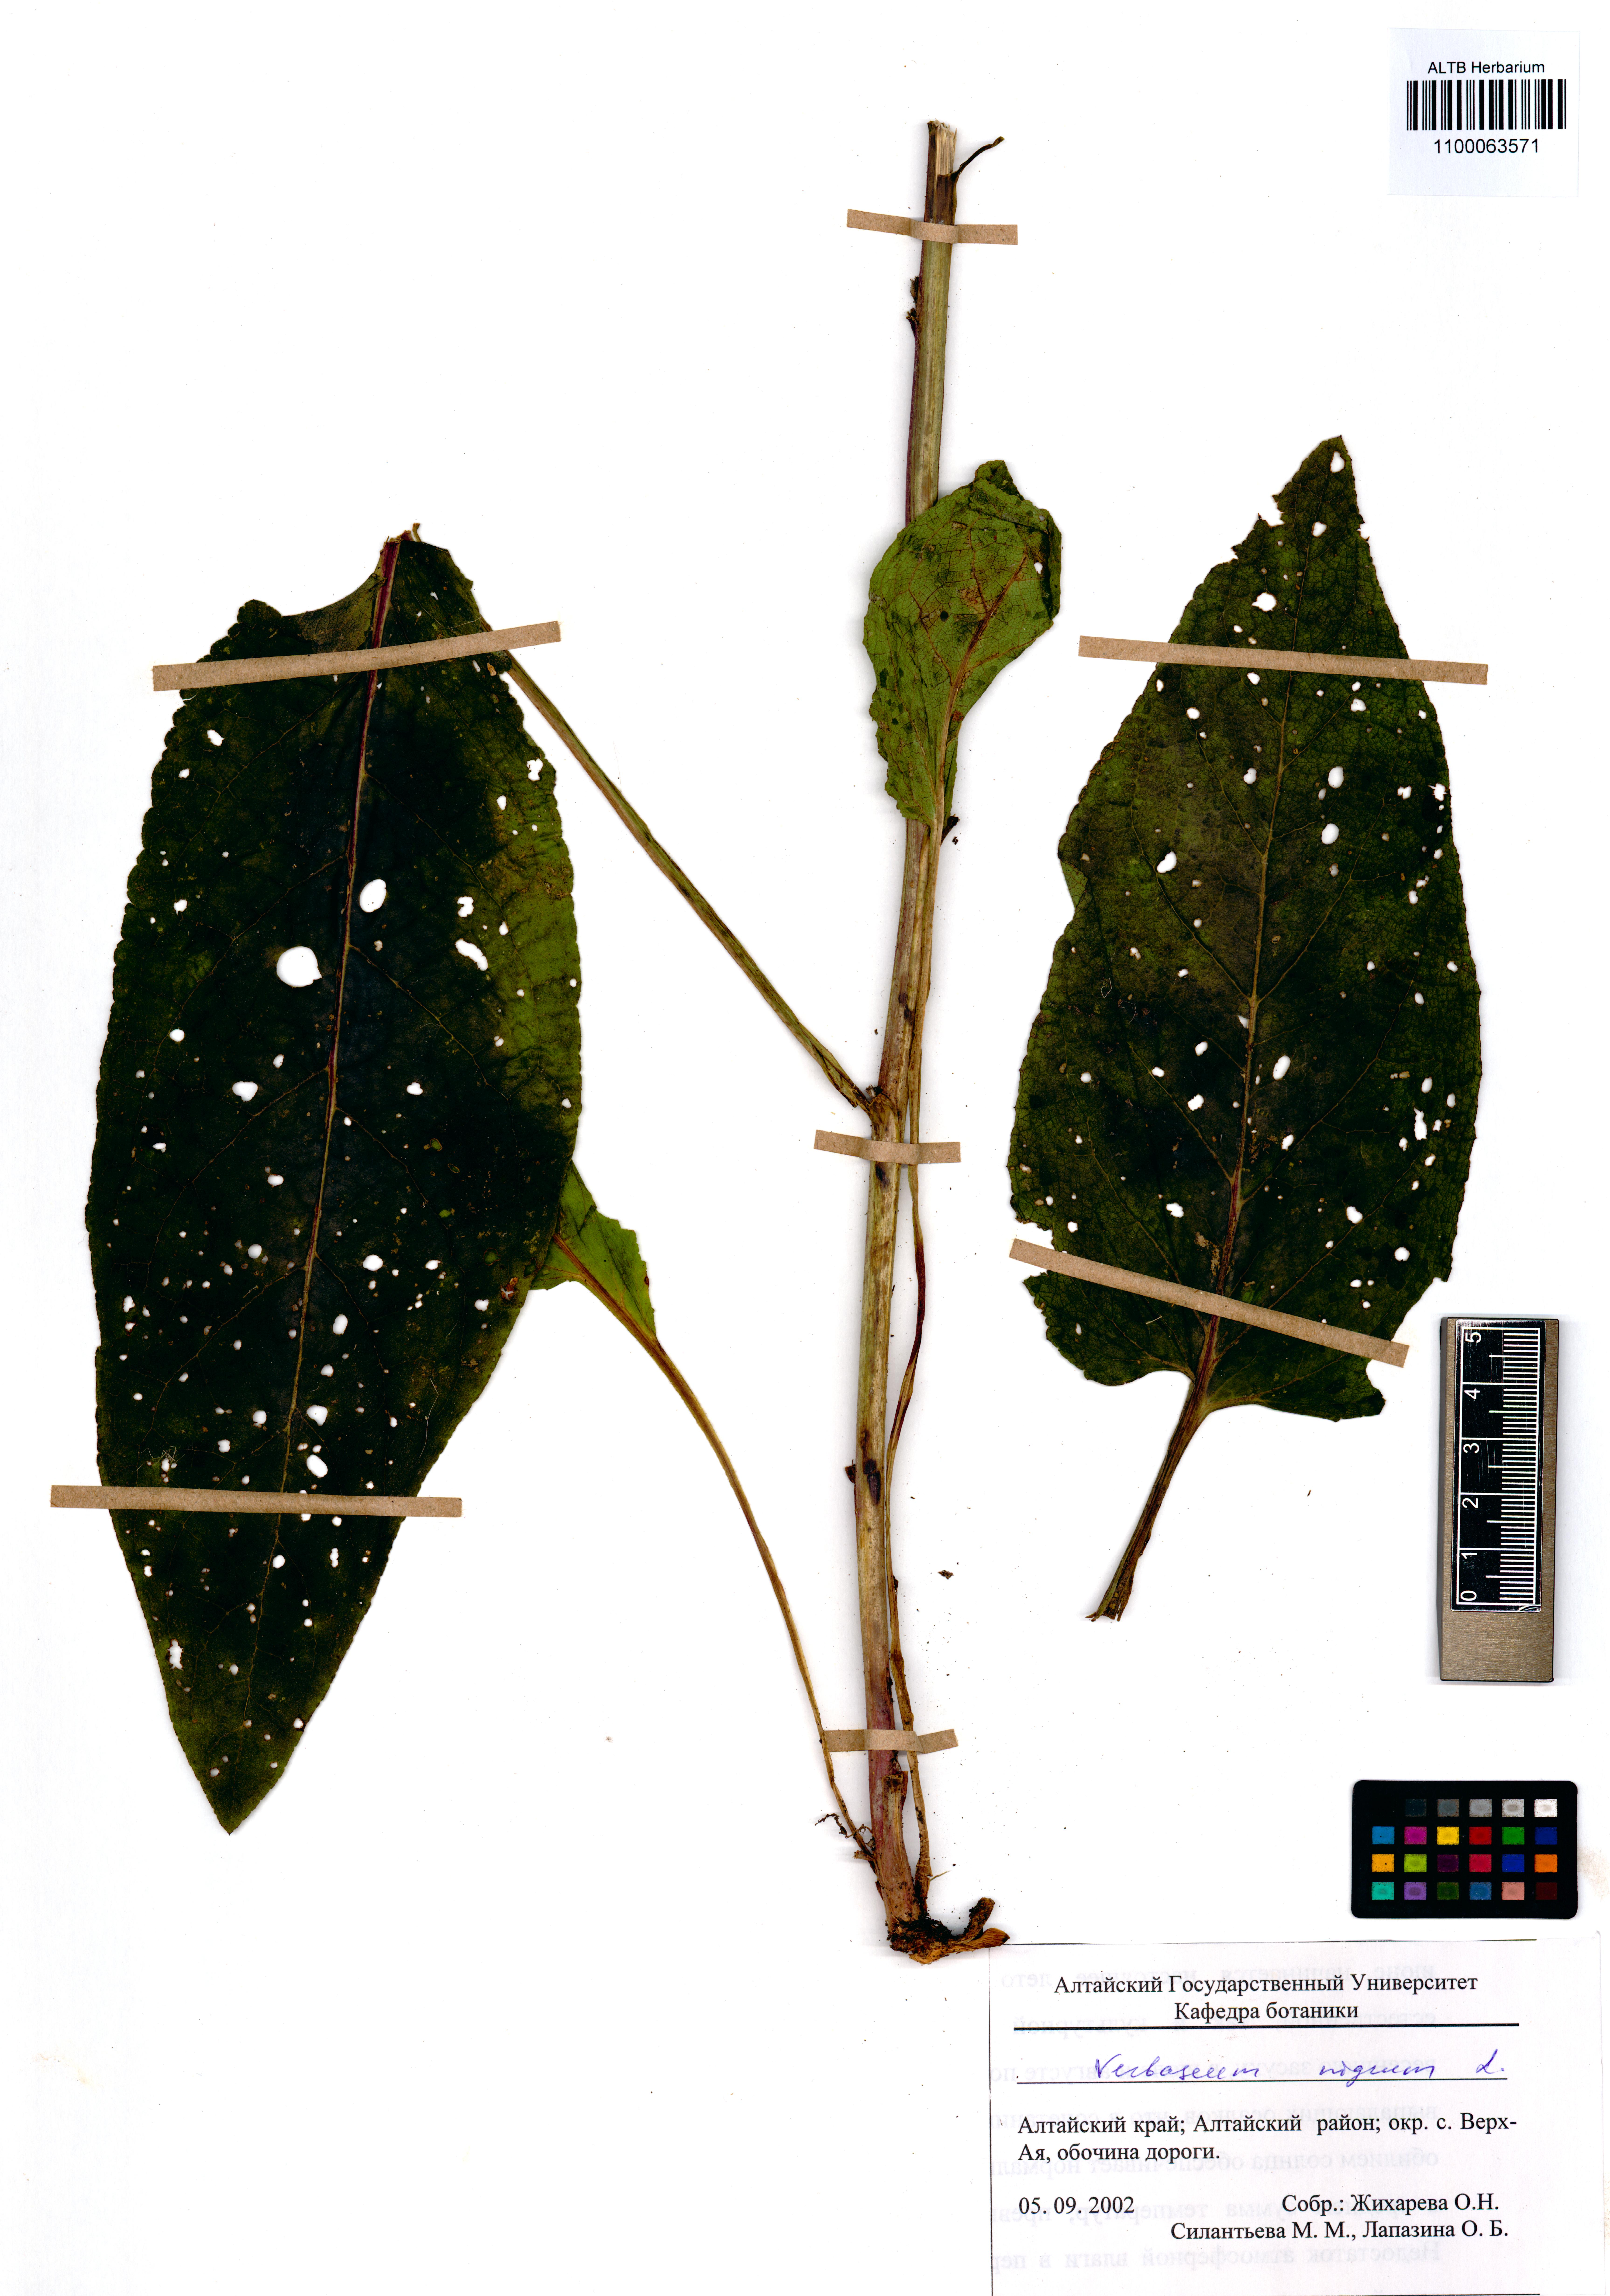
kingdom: Plantae
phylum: Tracheophyta
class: Magnoliopsida
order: Lamiales
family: Scrophulariaceae
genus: Verbascum
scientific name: Verbascum nigrum
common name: Dark mullein
